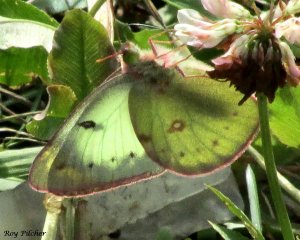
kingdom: Animalia
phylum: Arthropoda
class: Insecta
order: Lepidoptera
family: Pieridae
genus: Colias
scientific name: Colias philodice
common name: Clouded Sulphur
